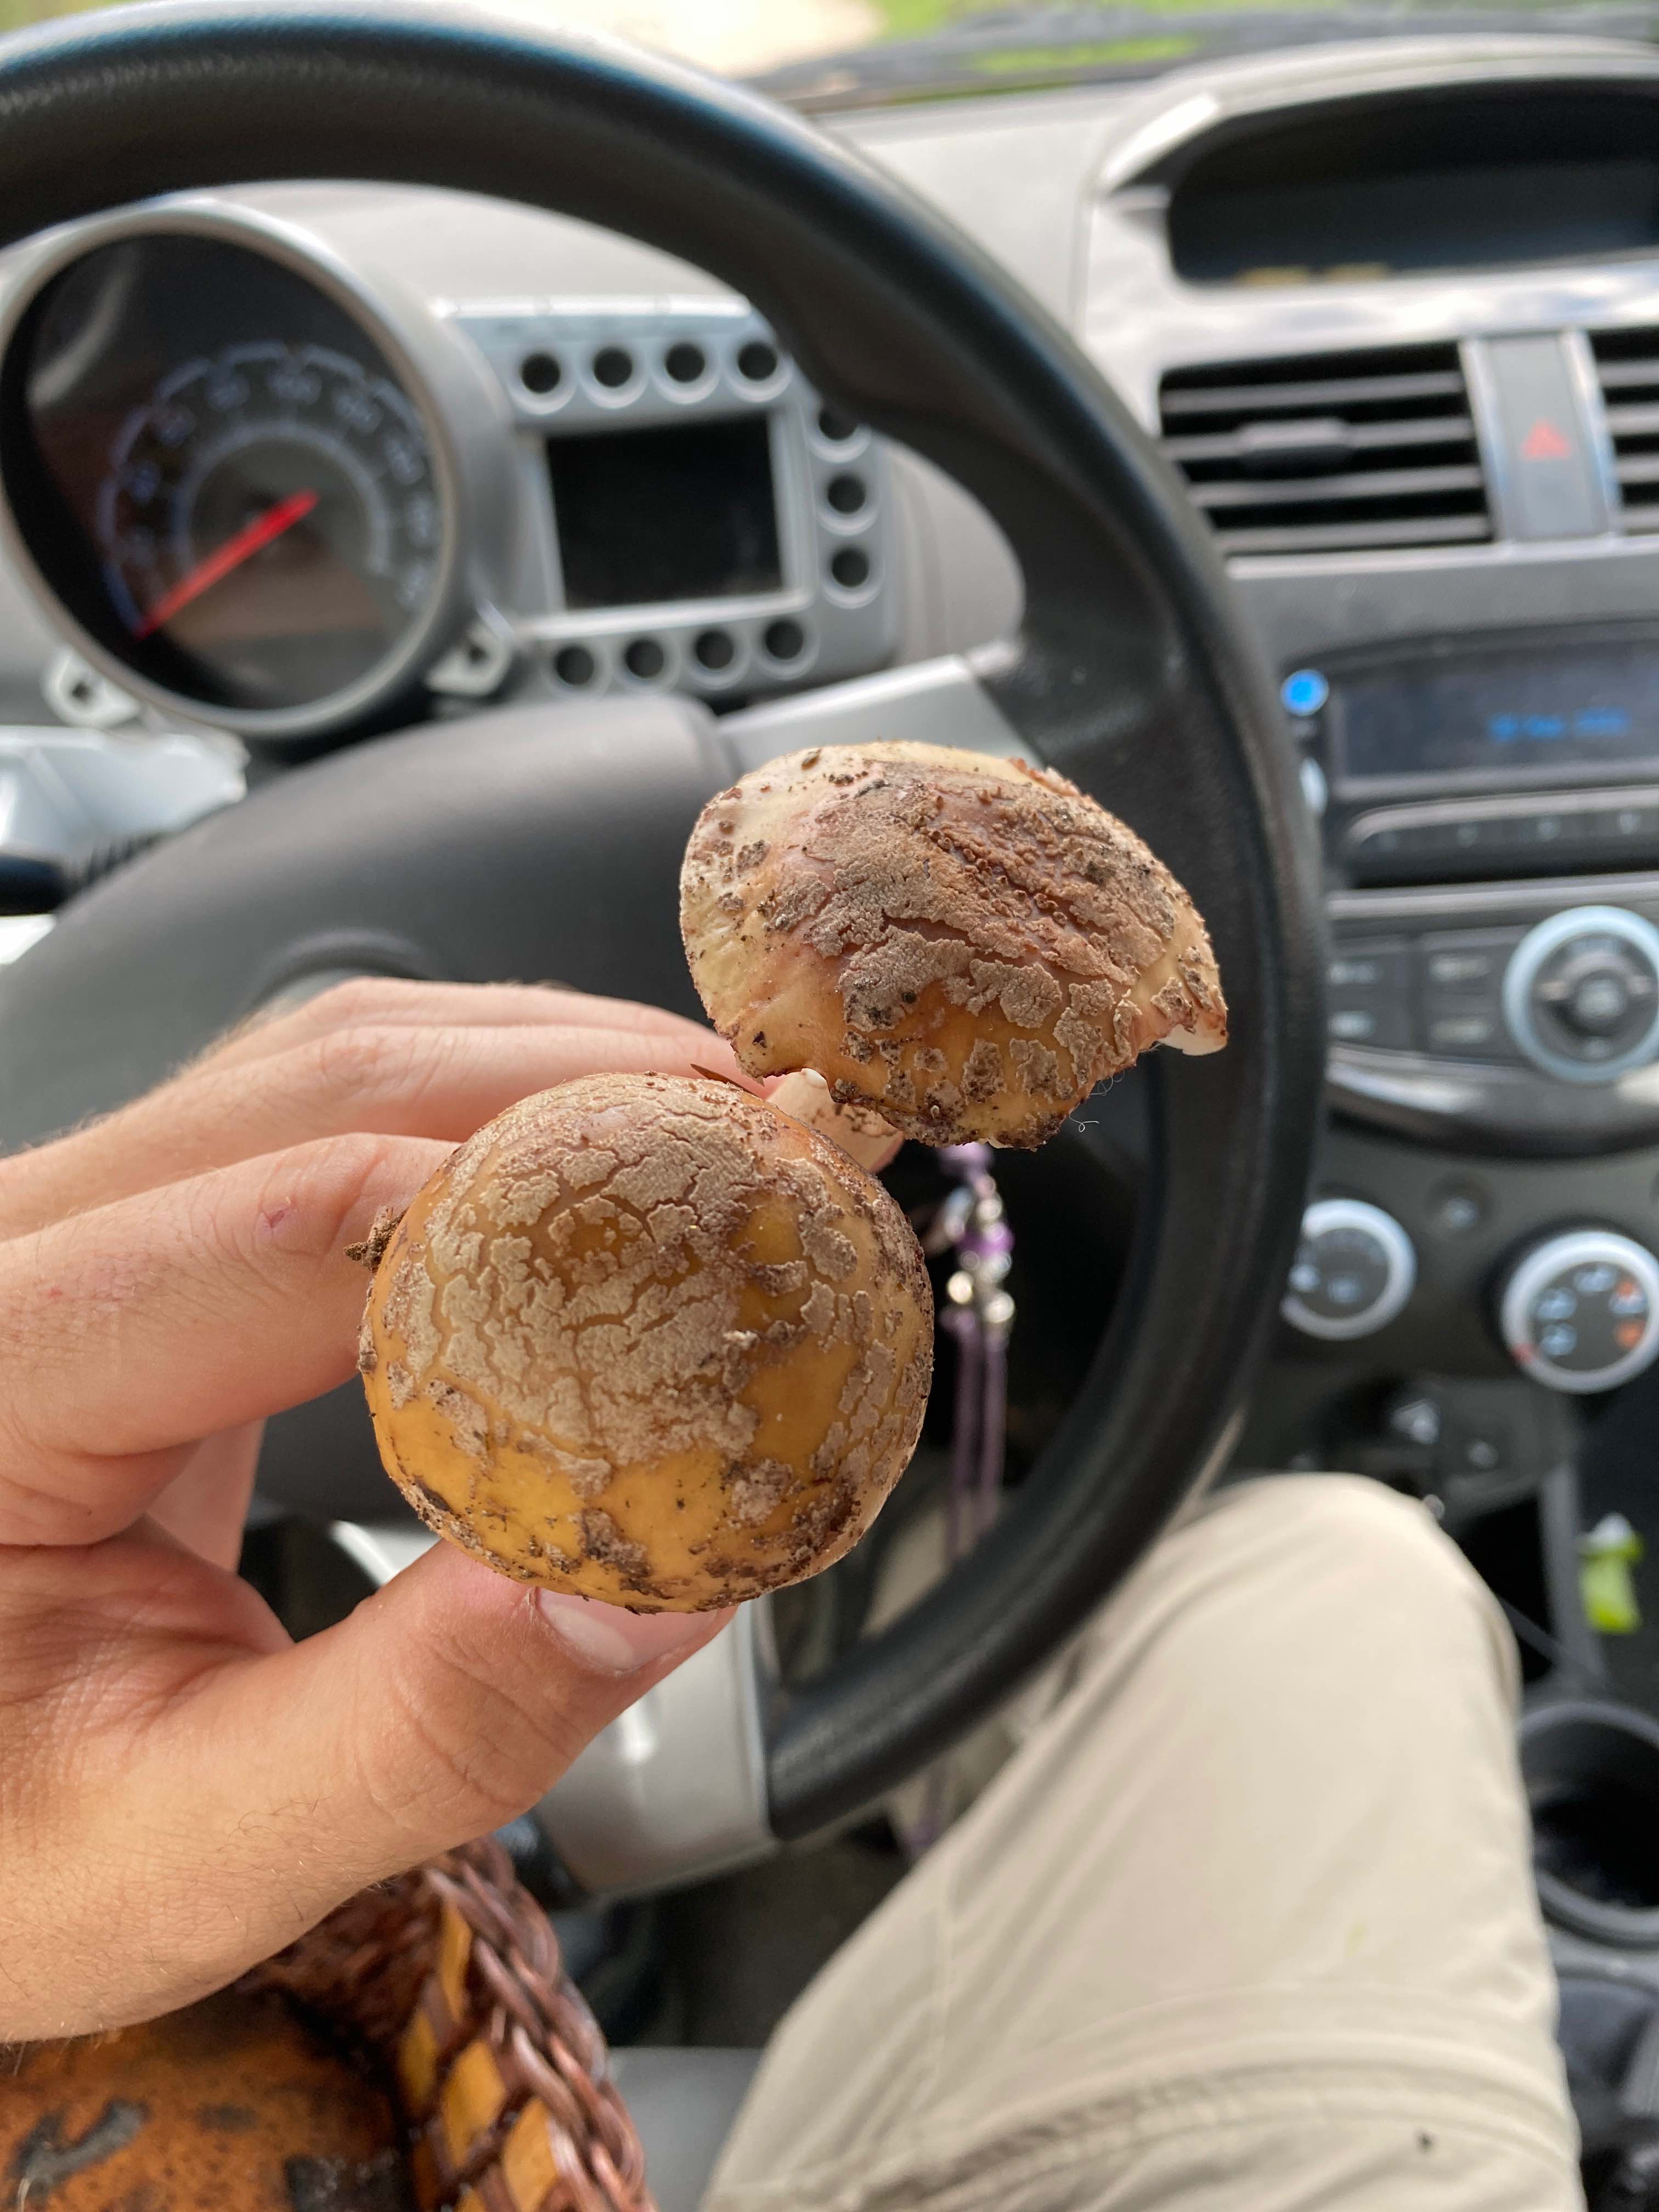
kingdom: Fungi
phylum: Basidiomycota
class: Agaricomycetes
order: Agaricales
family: Amanitaceae
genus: Amanita
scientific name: Amanita rubescens
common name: rødmende fluesvamp
